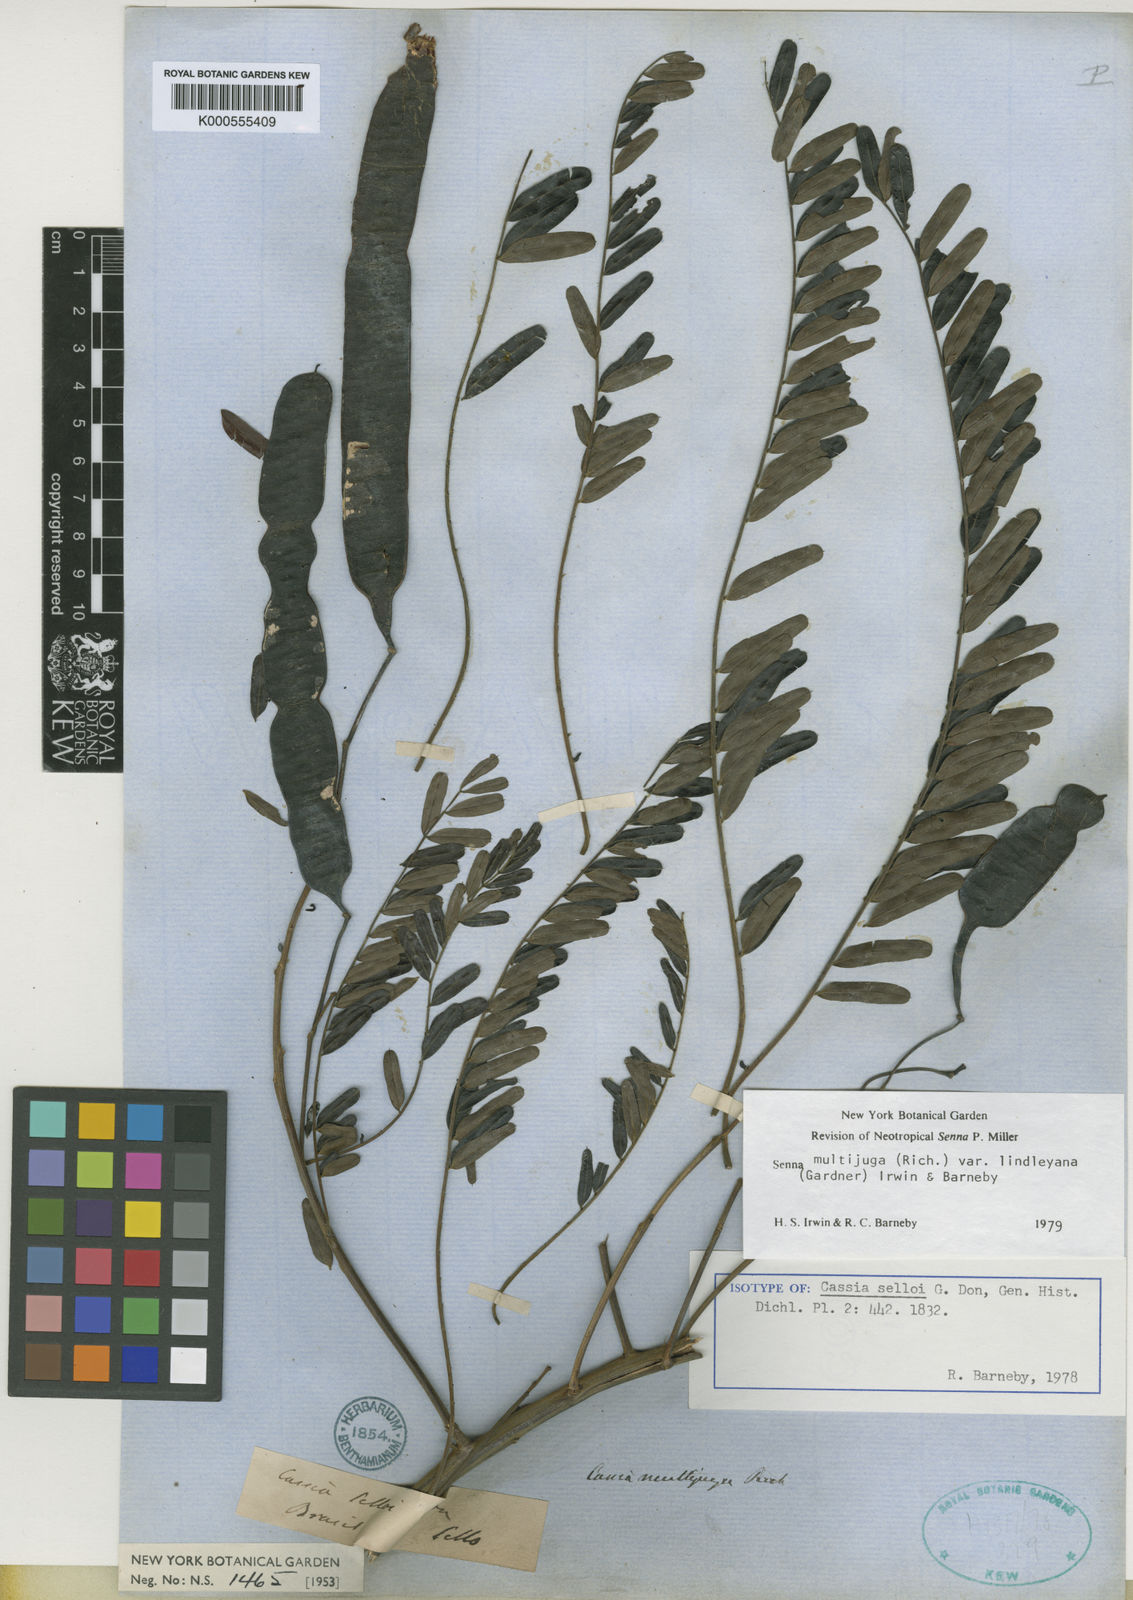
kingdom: Plantae
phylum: Tracheophyta
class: Magnoliopsida
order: Fabales
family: Fabaceae
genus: Senna
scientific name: Senna multijuga
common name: False sicklepod
